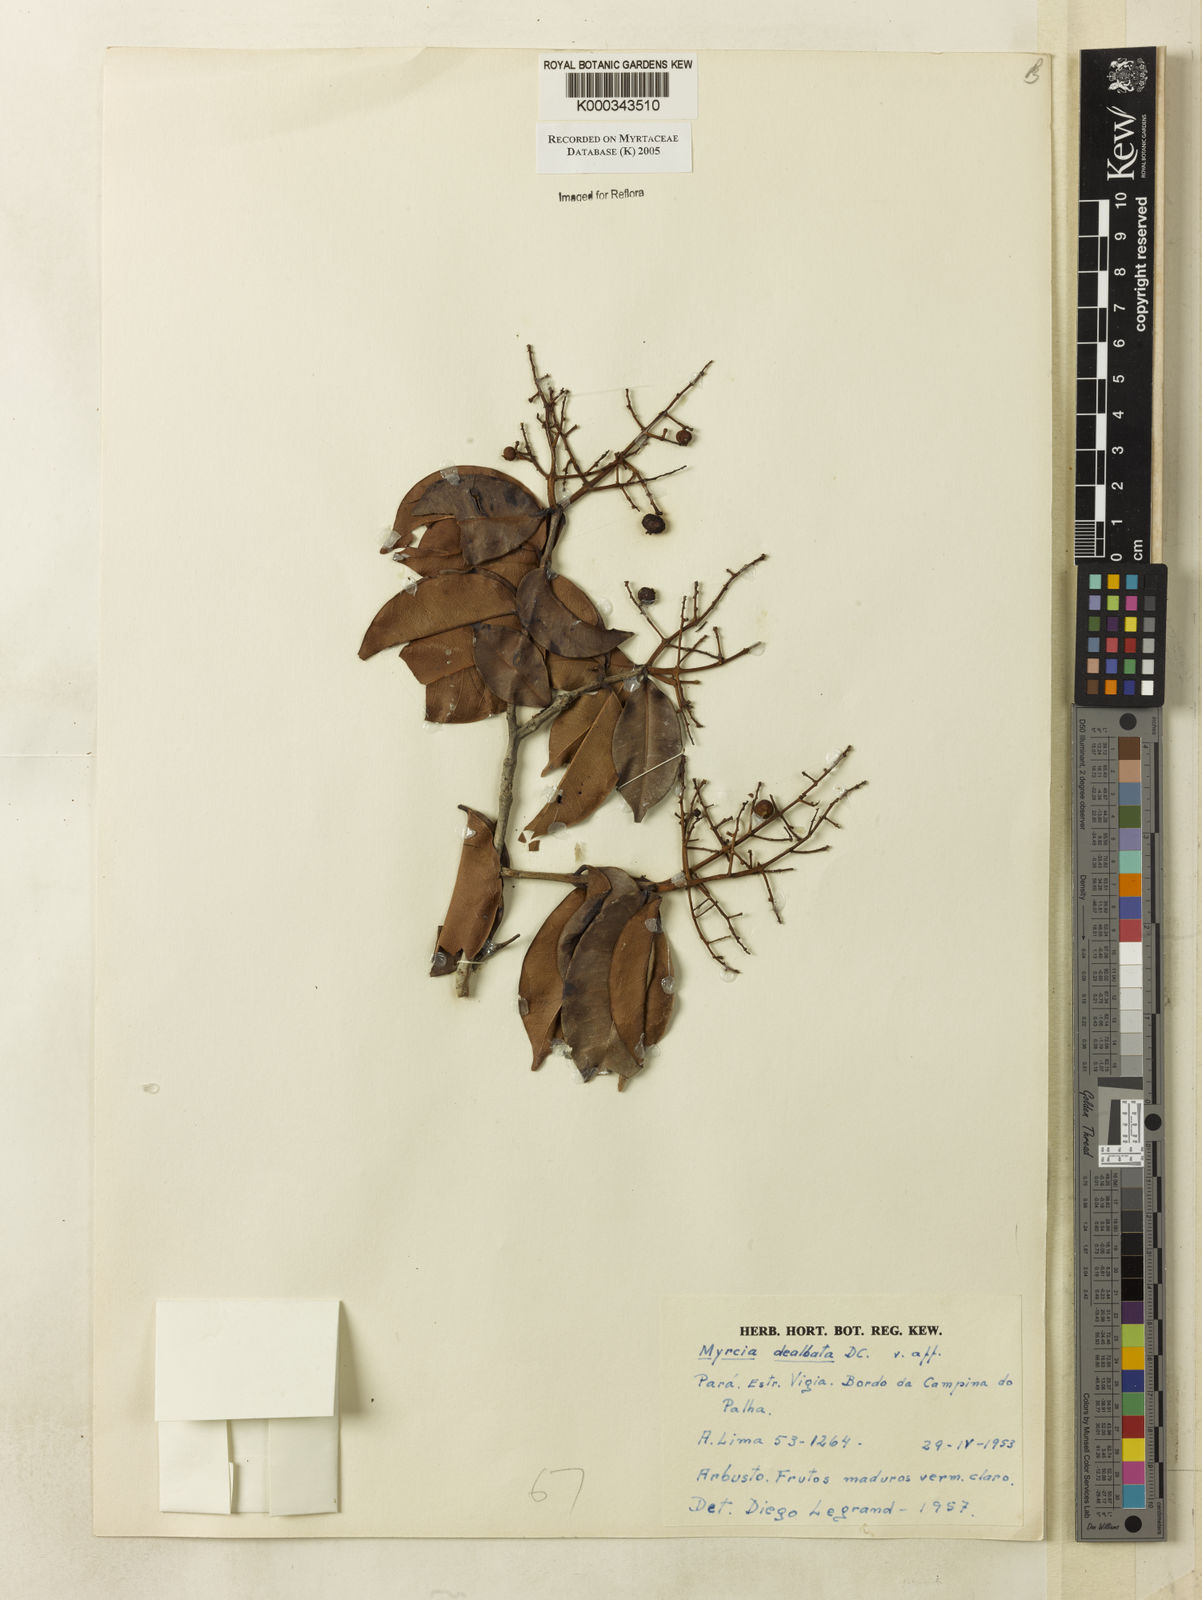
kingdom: Plantae
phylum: Tracheophyta
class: Magnoliopsida
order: Myrtales
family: Myrtaceae
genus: Myrcia
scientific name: Myrcia laruotteana
